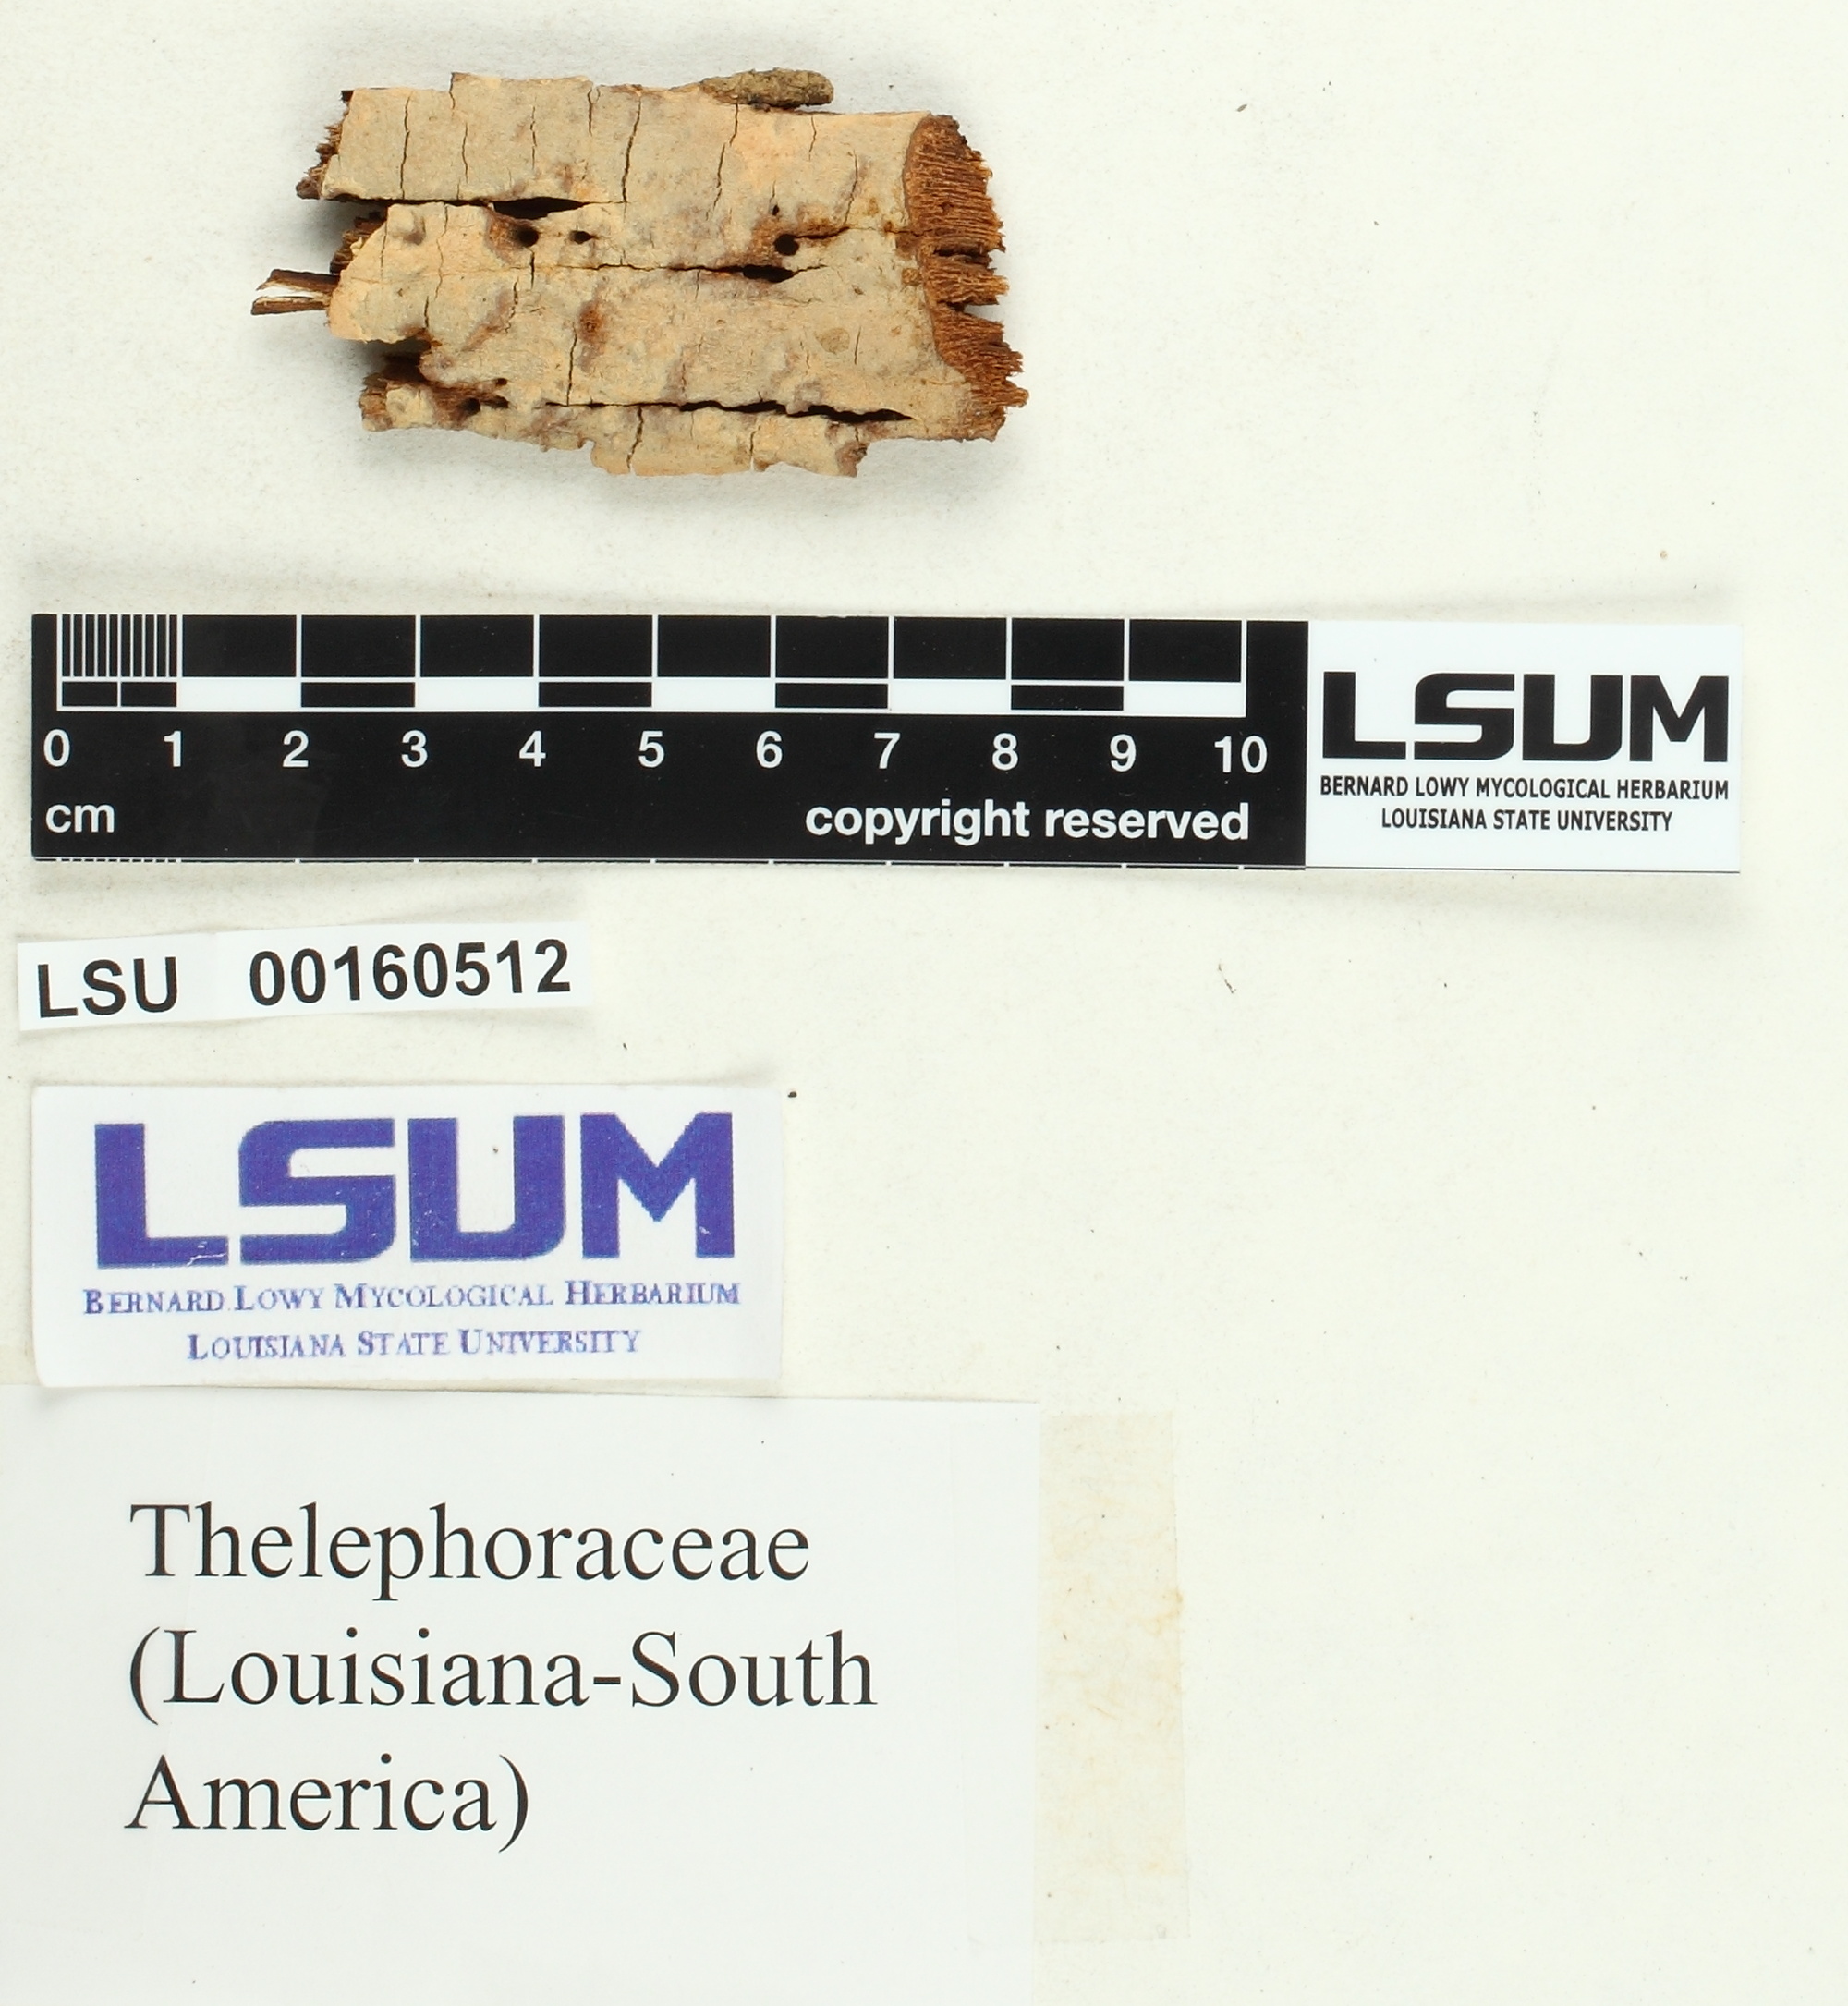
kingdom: Fungi
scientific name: Fungi
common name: Fungi
